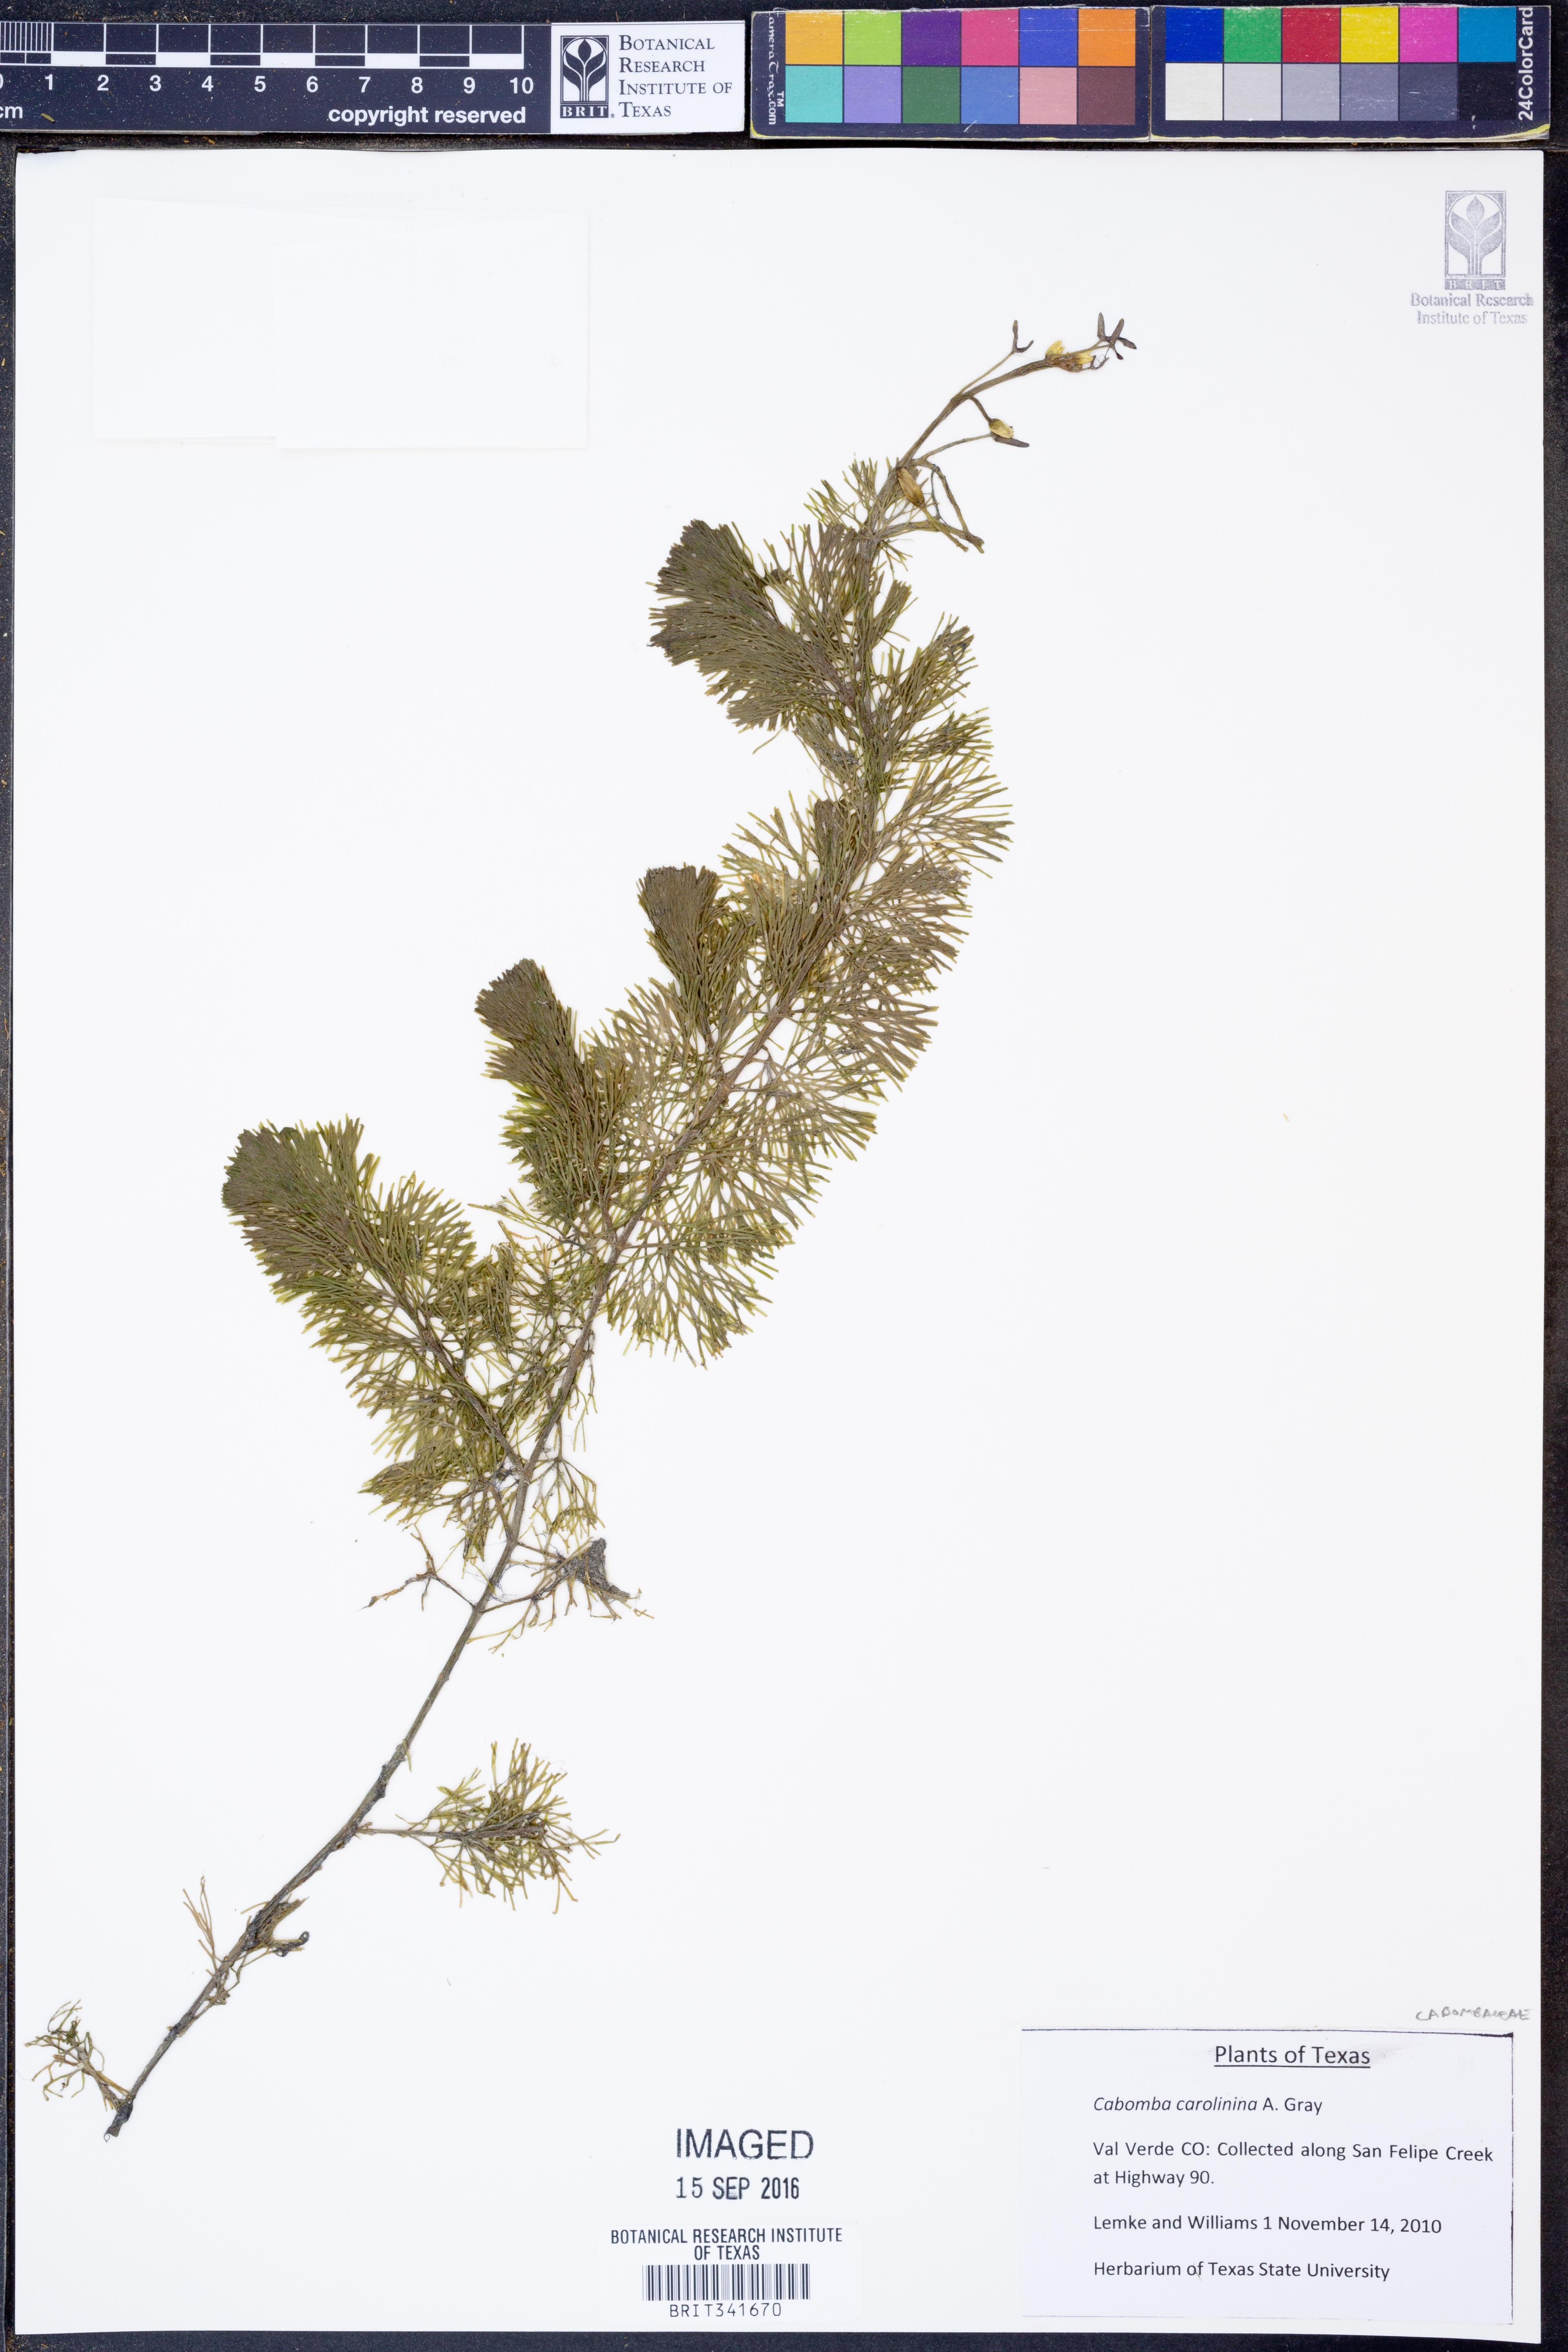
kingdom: Plantae
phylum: Tracheophyta
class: Magnoliopsida
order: Nymphaeales
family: Cabombaceae
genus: Cabomba
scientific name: Cabomba caroliniana
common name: Fanwort
